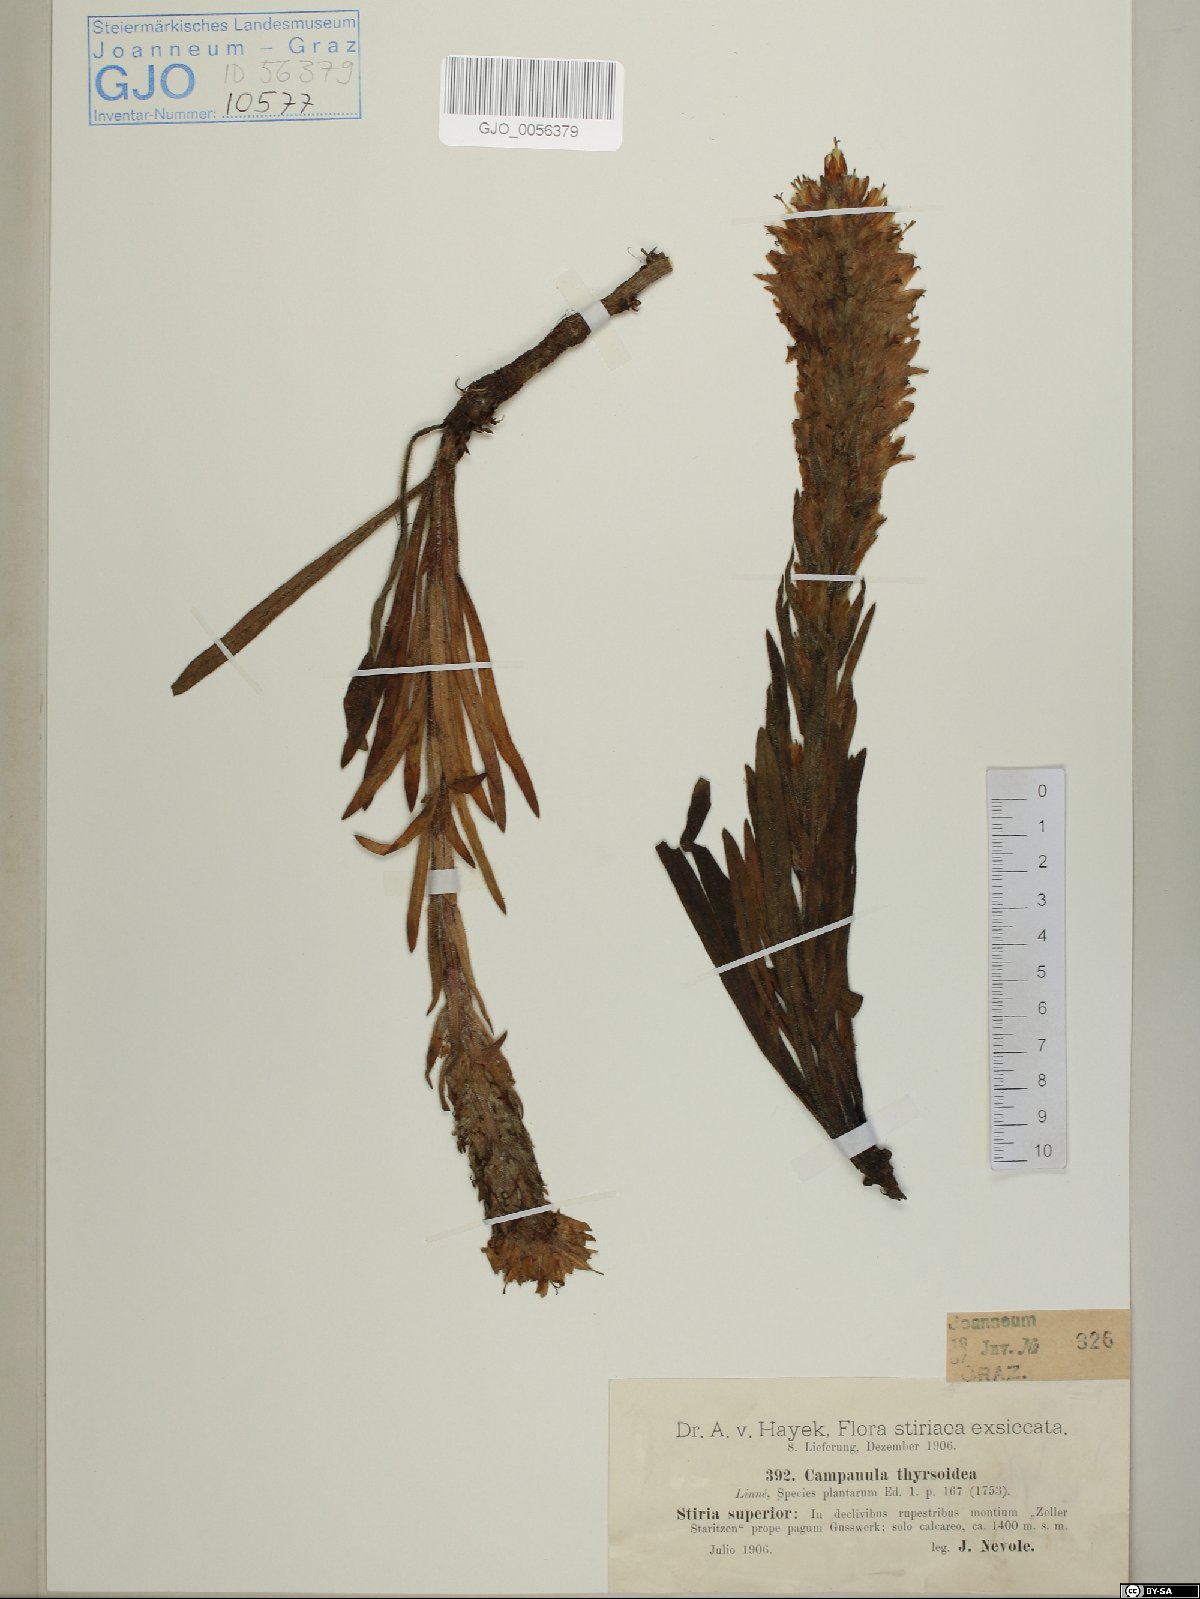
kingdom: Plantae
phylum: Tracheophyta
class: Magnoliopsida
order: Asterales
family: Campanulaceae
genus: Campanula
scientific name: Campanula thyrsoides
